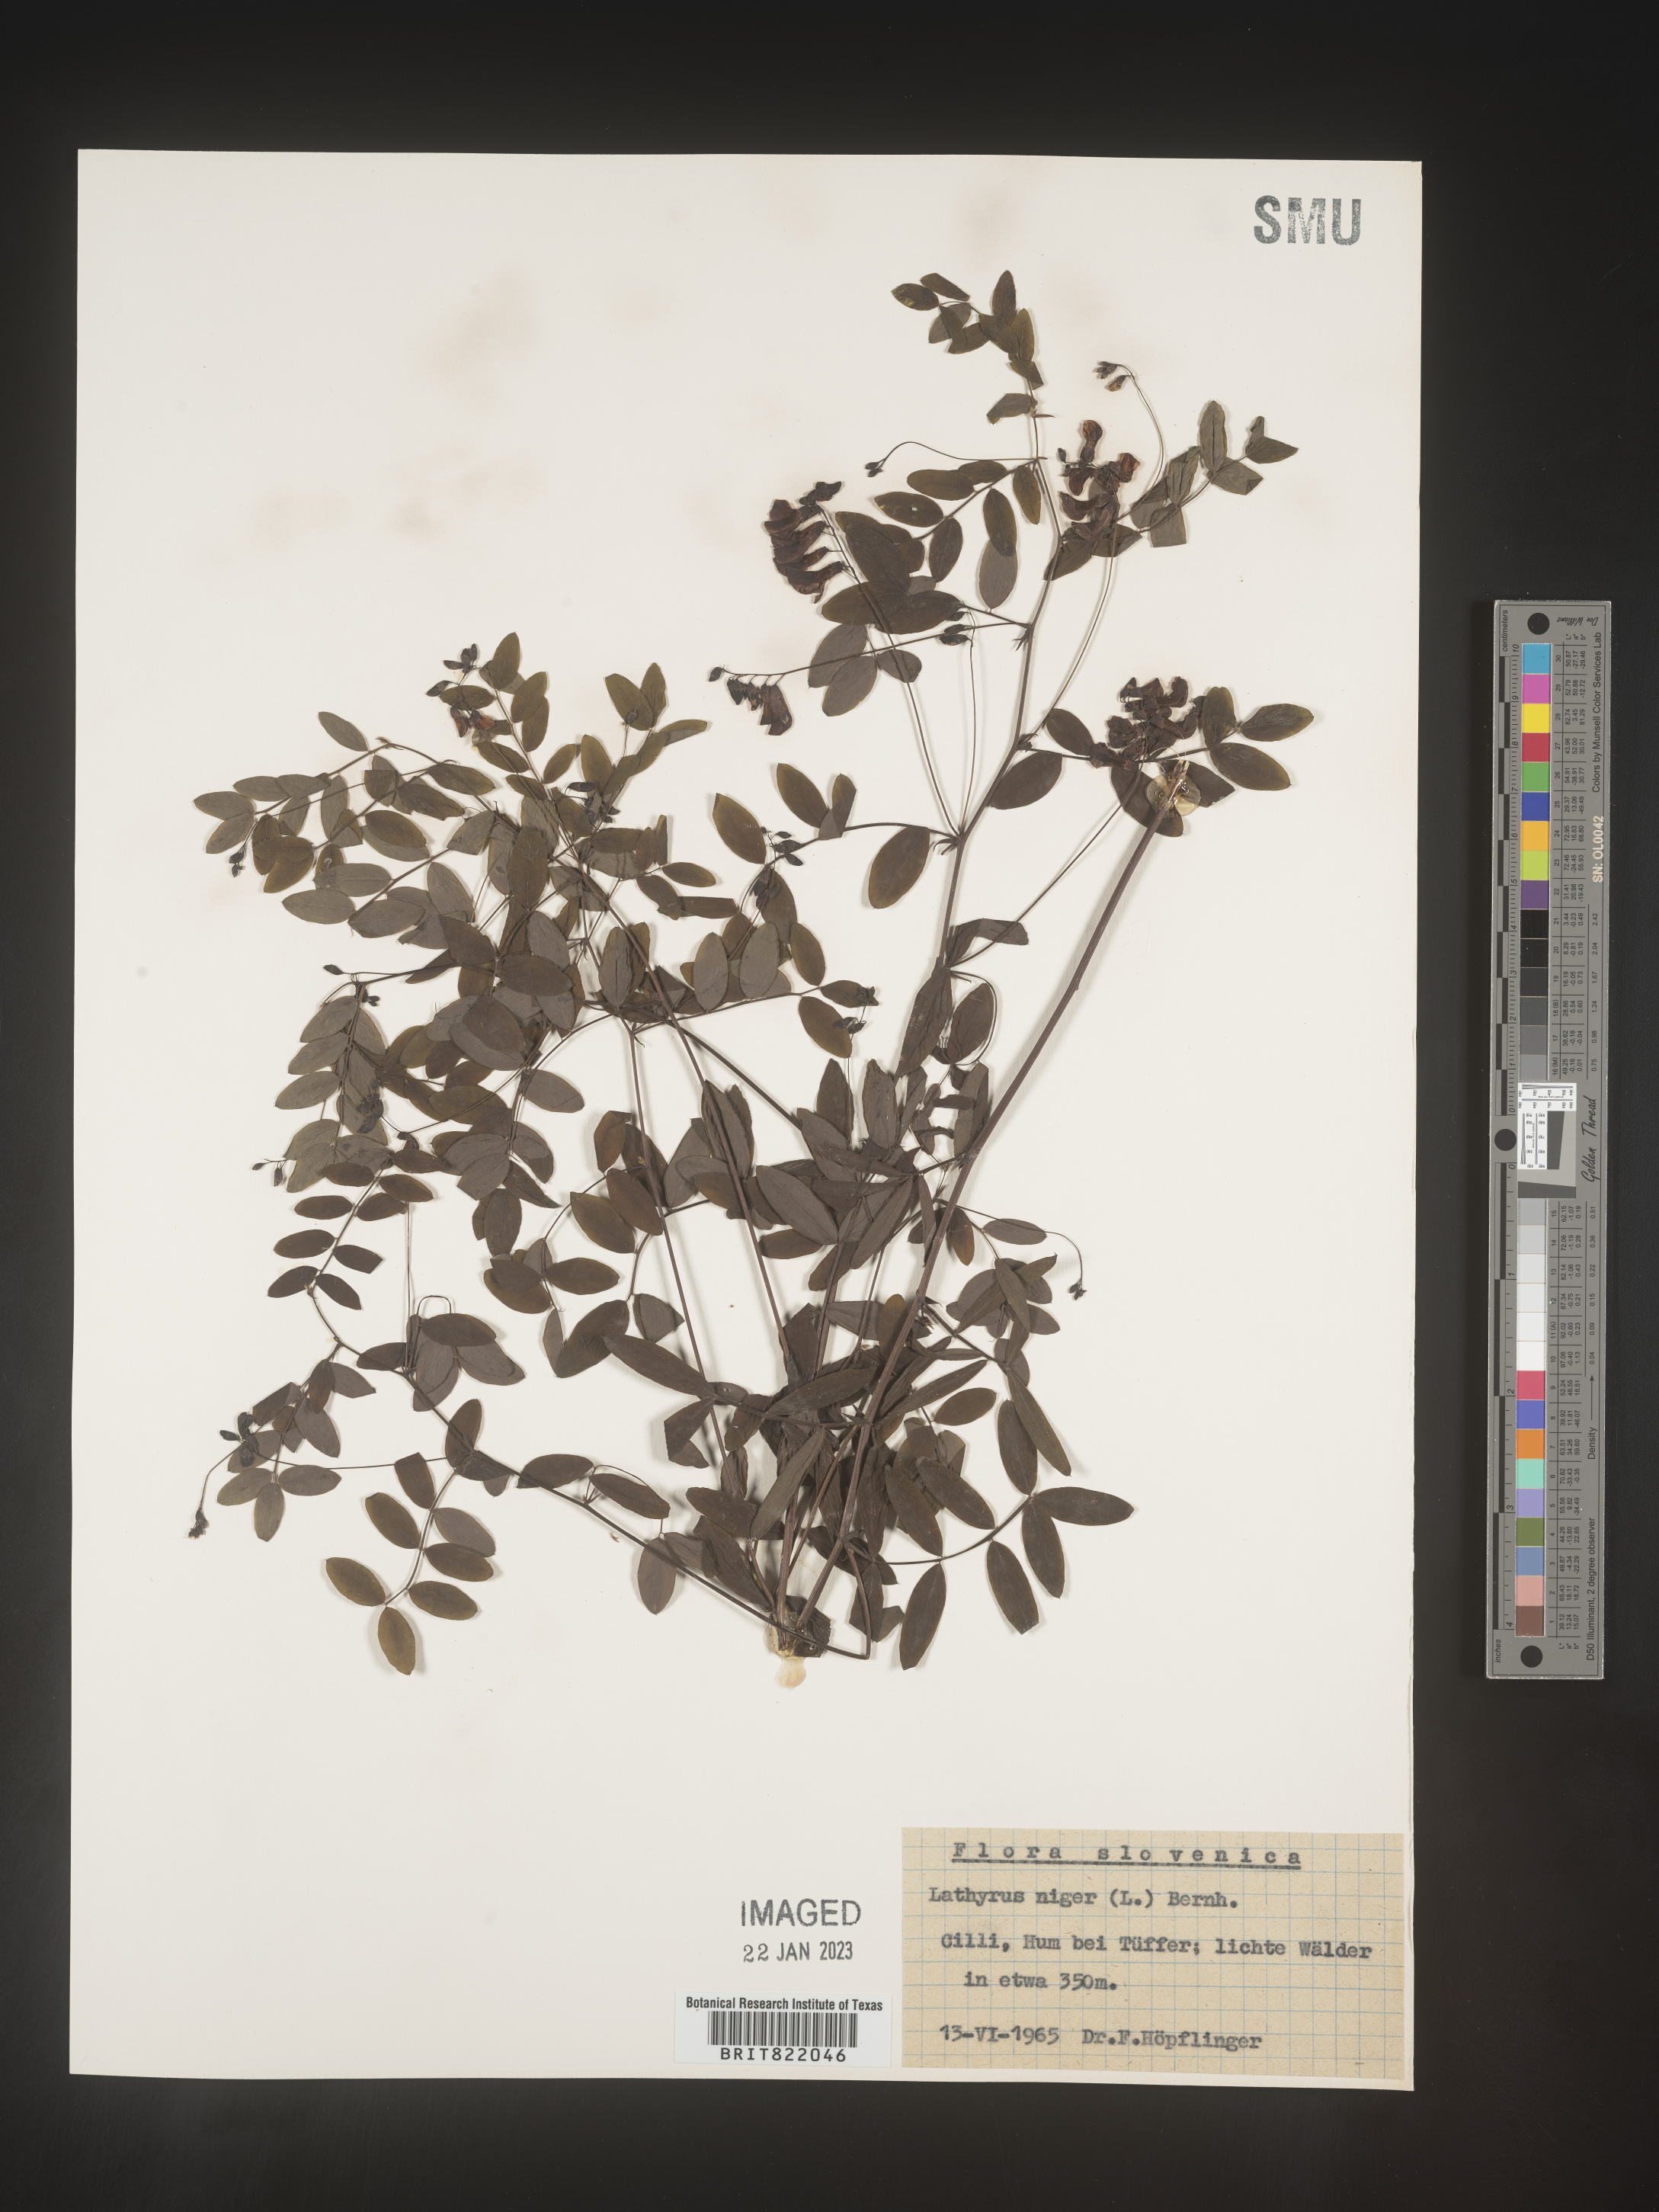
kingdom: Plantae
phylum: Tracheophyta
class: Magnoliopsida
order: Fabales
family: Fabaceae
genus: Lathyrus
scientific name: Lathyrus
